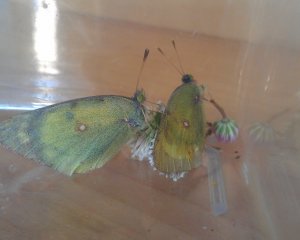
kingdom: Animalia
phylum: Arthropoda
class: Insecta
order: Lepidoptera
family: Pieridae
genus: Colias
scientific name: Colias philodice
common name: Clouded Sulphur
